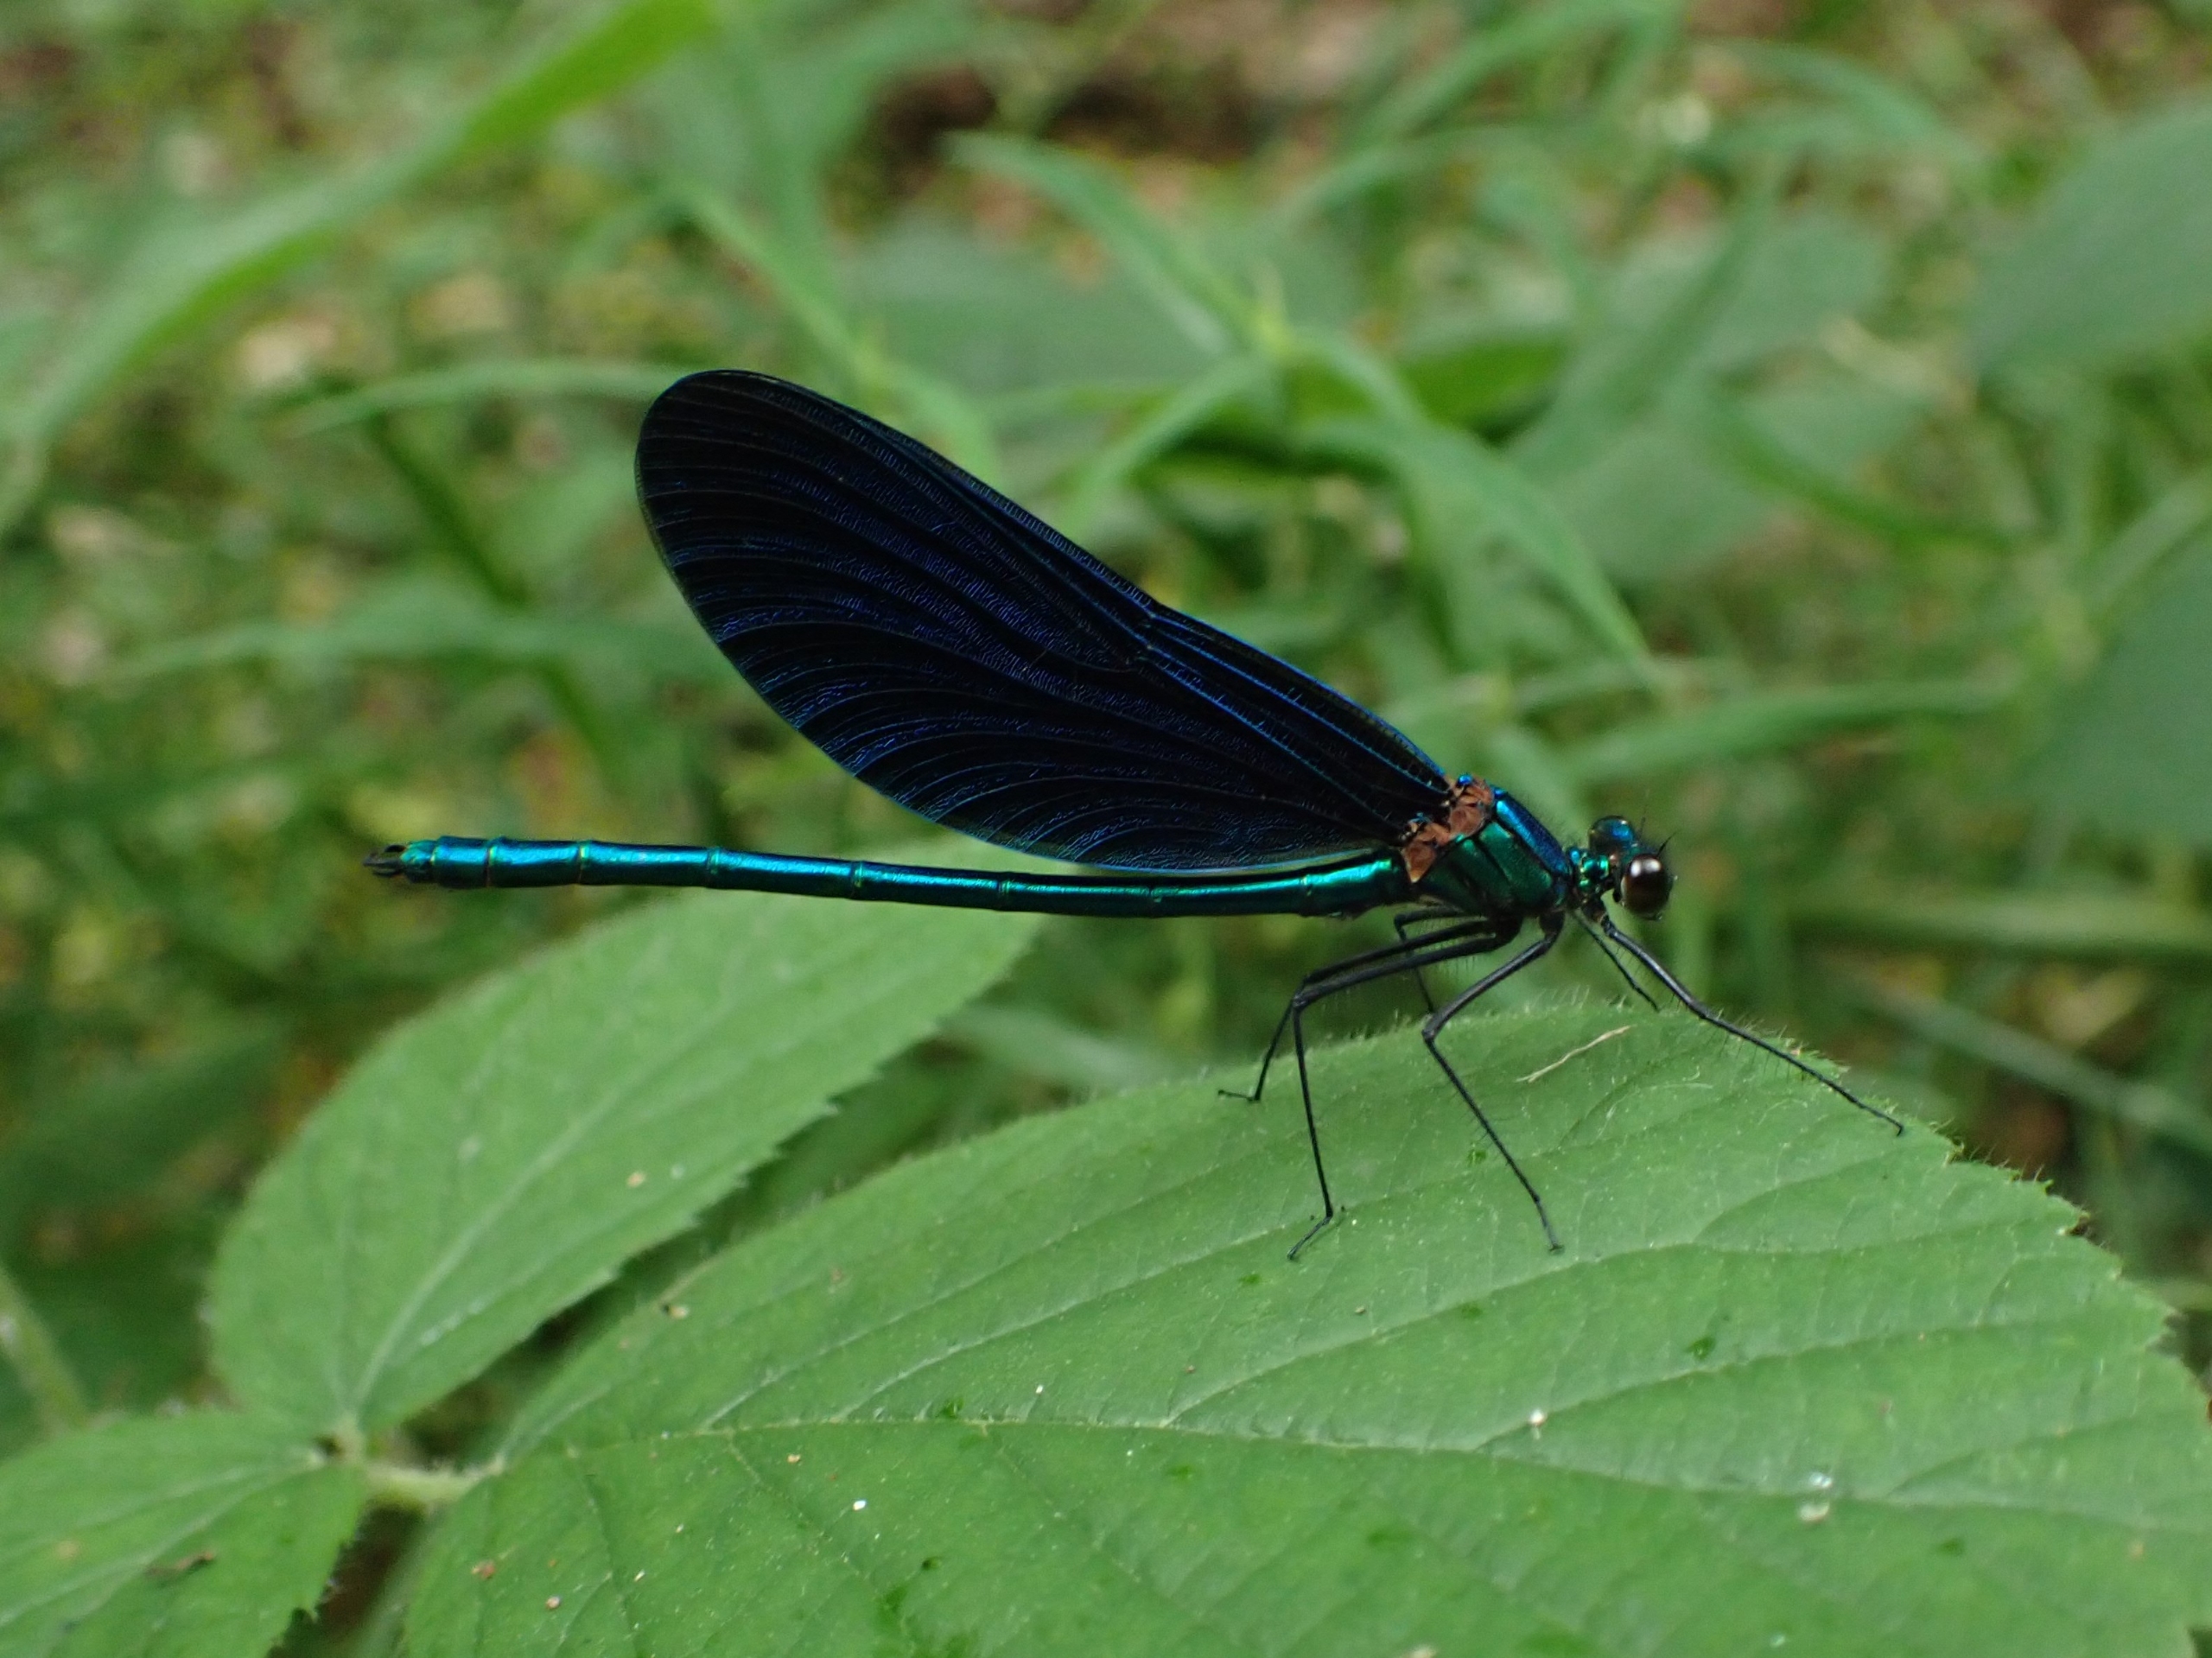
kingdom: Animalia
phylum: Arthropoda
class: Insecta
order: Odonata
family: Calopterygidae
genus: Calopteryx
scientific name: Calopteryx virgo
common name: Blåvinget pragtvandnymfe
